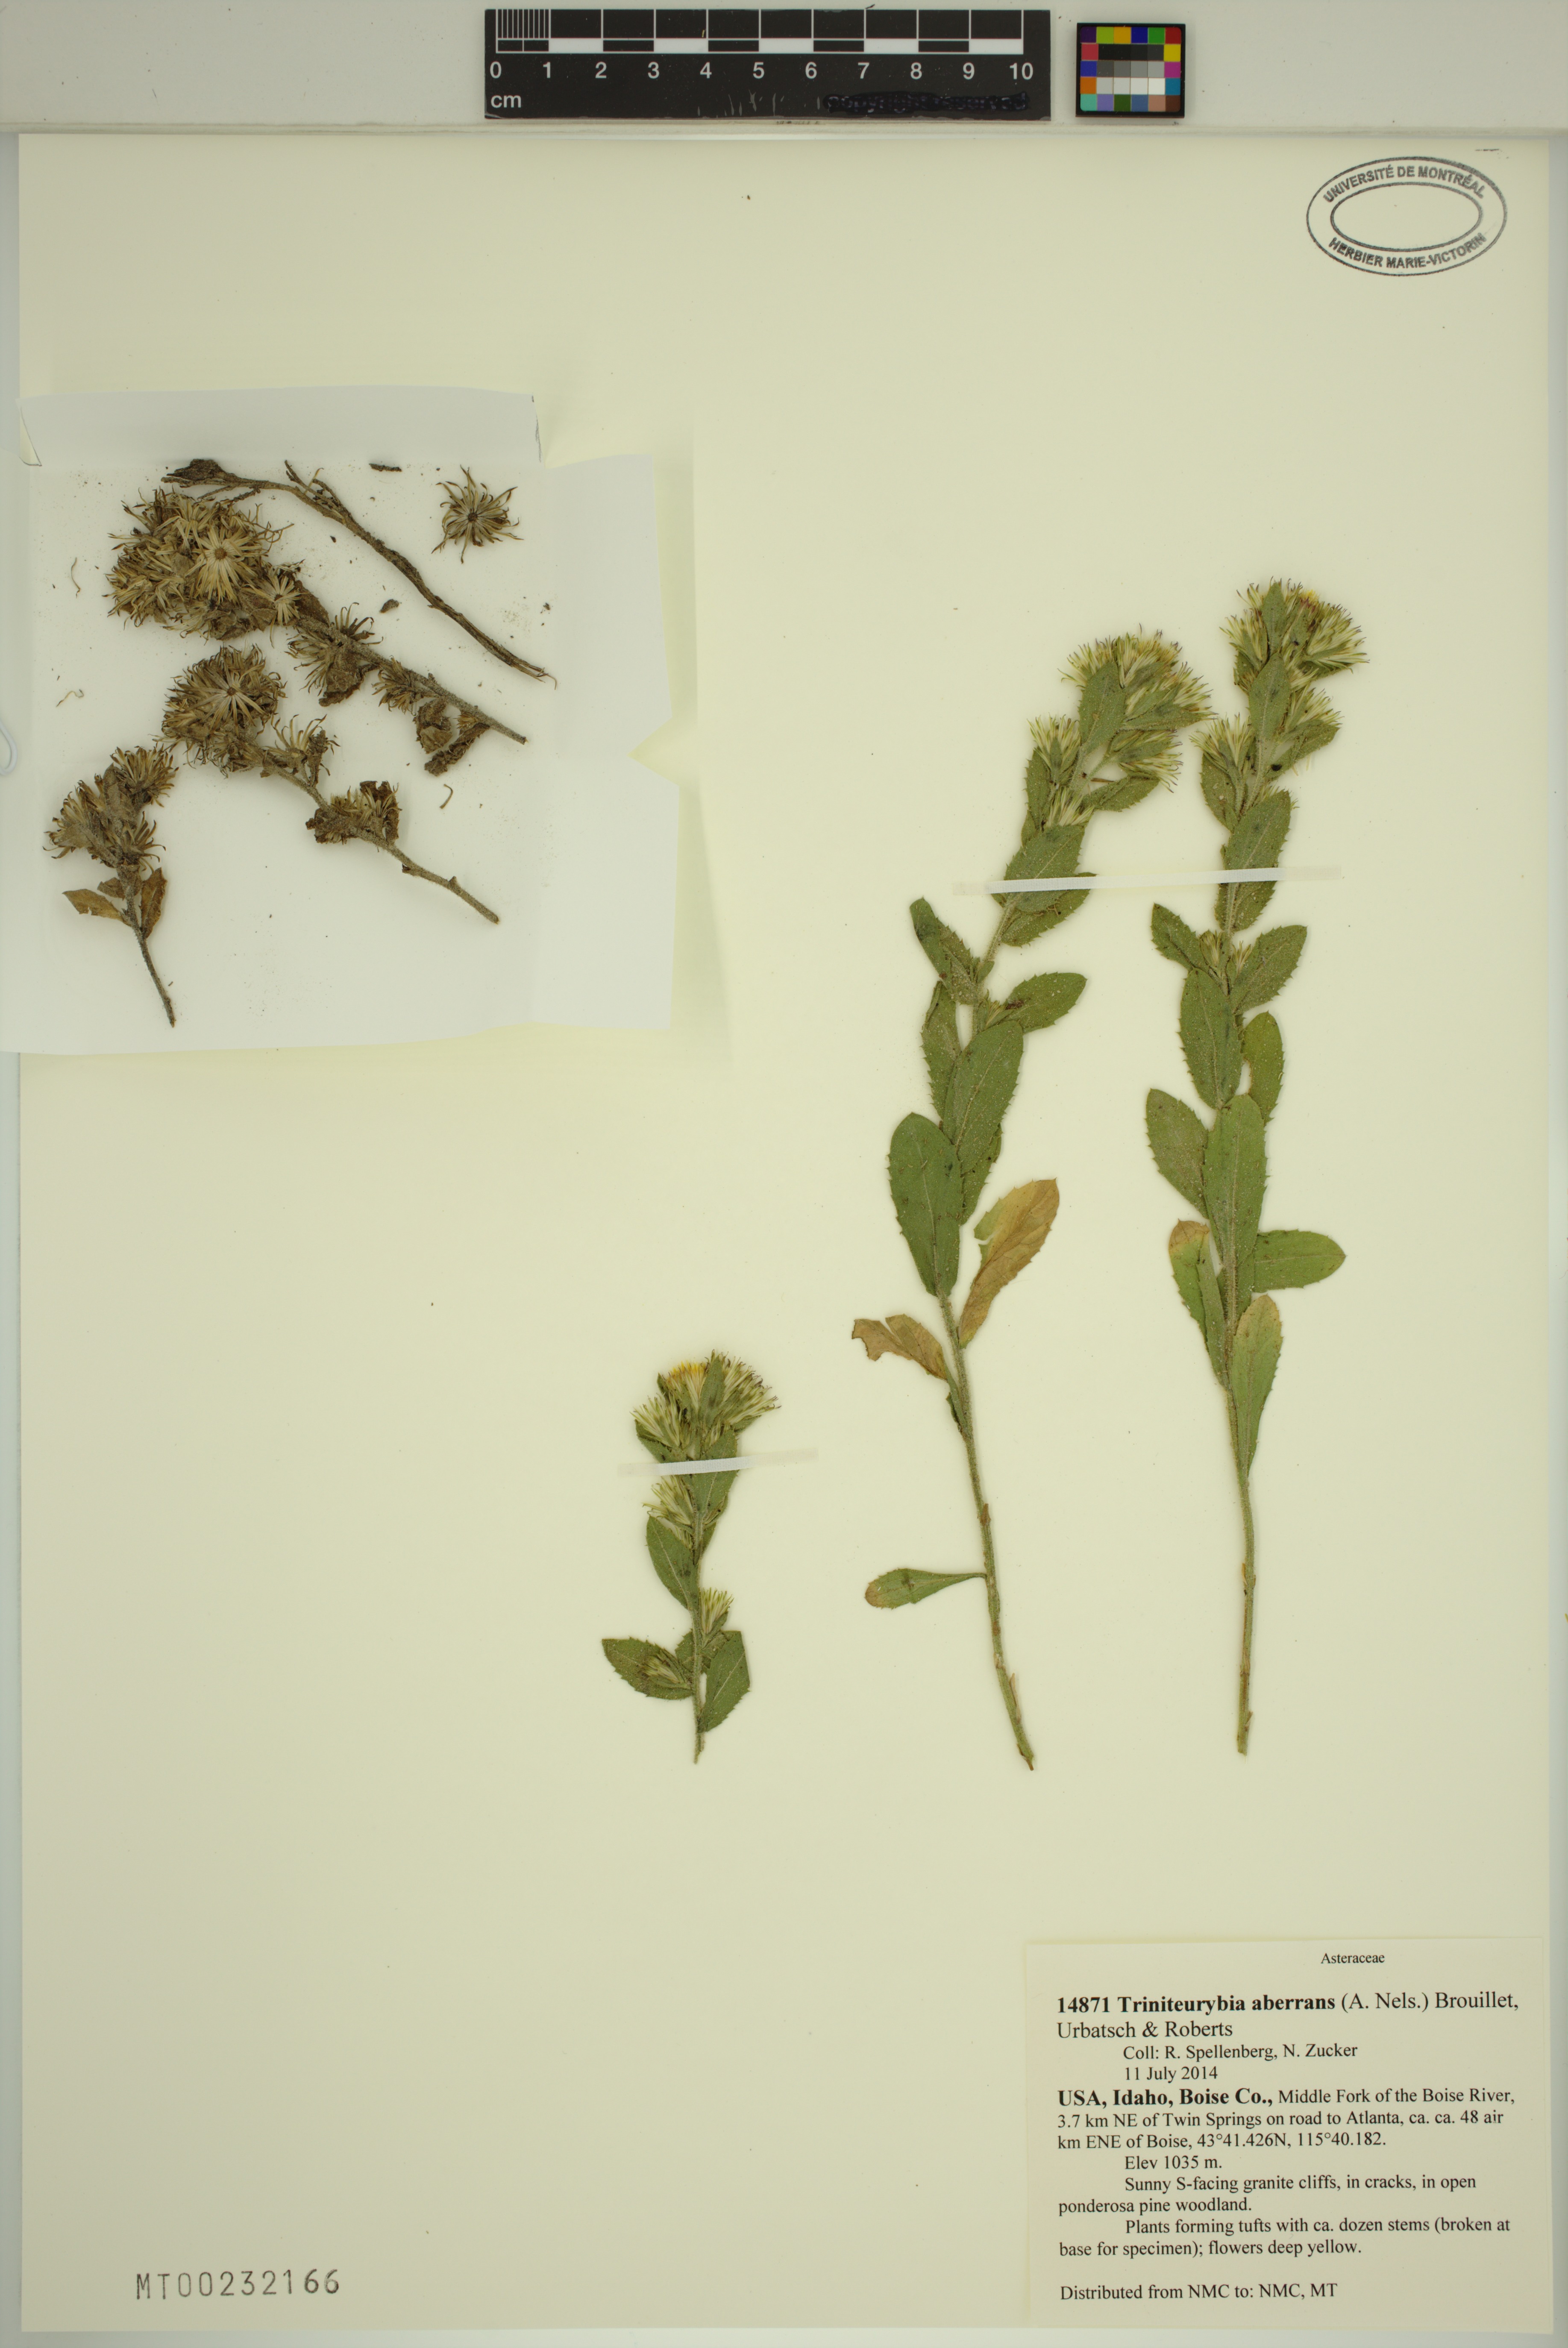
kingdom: Plantae
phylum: Tracheophyta
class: Magnoliopsida
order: Asterales
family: Asteraceae
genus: Triniteurybia
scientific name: Triniteurybia aberrans
